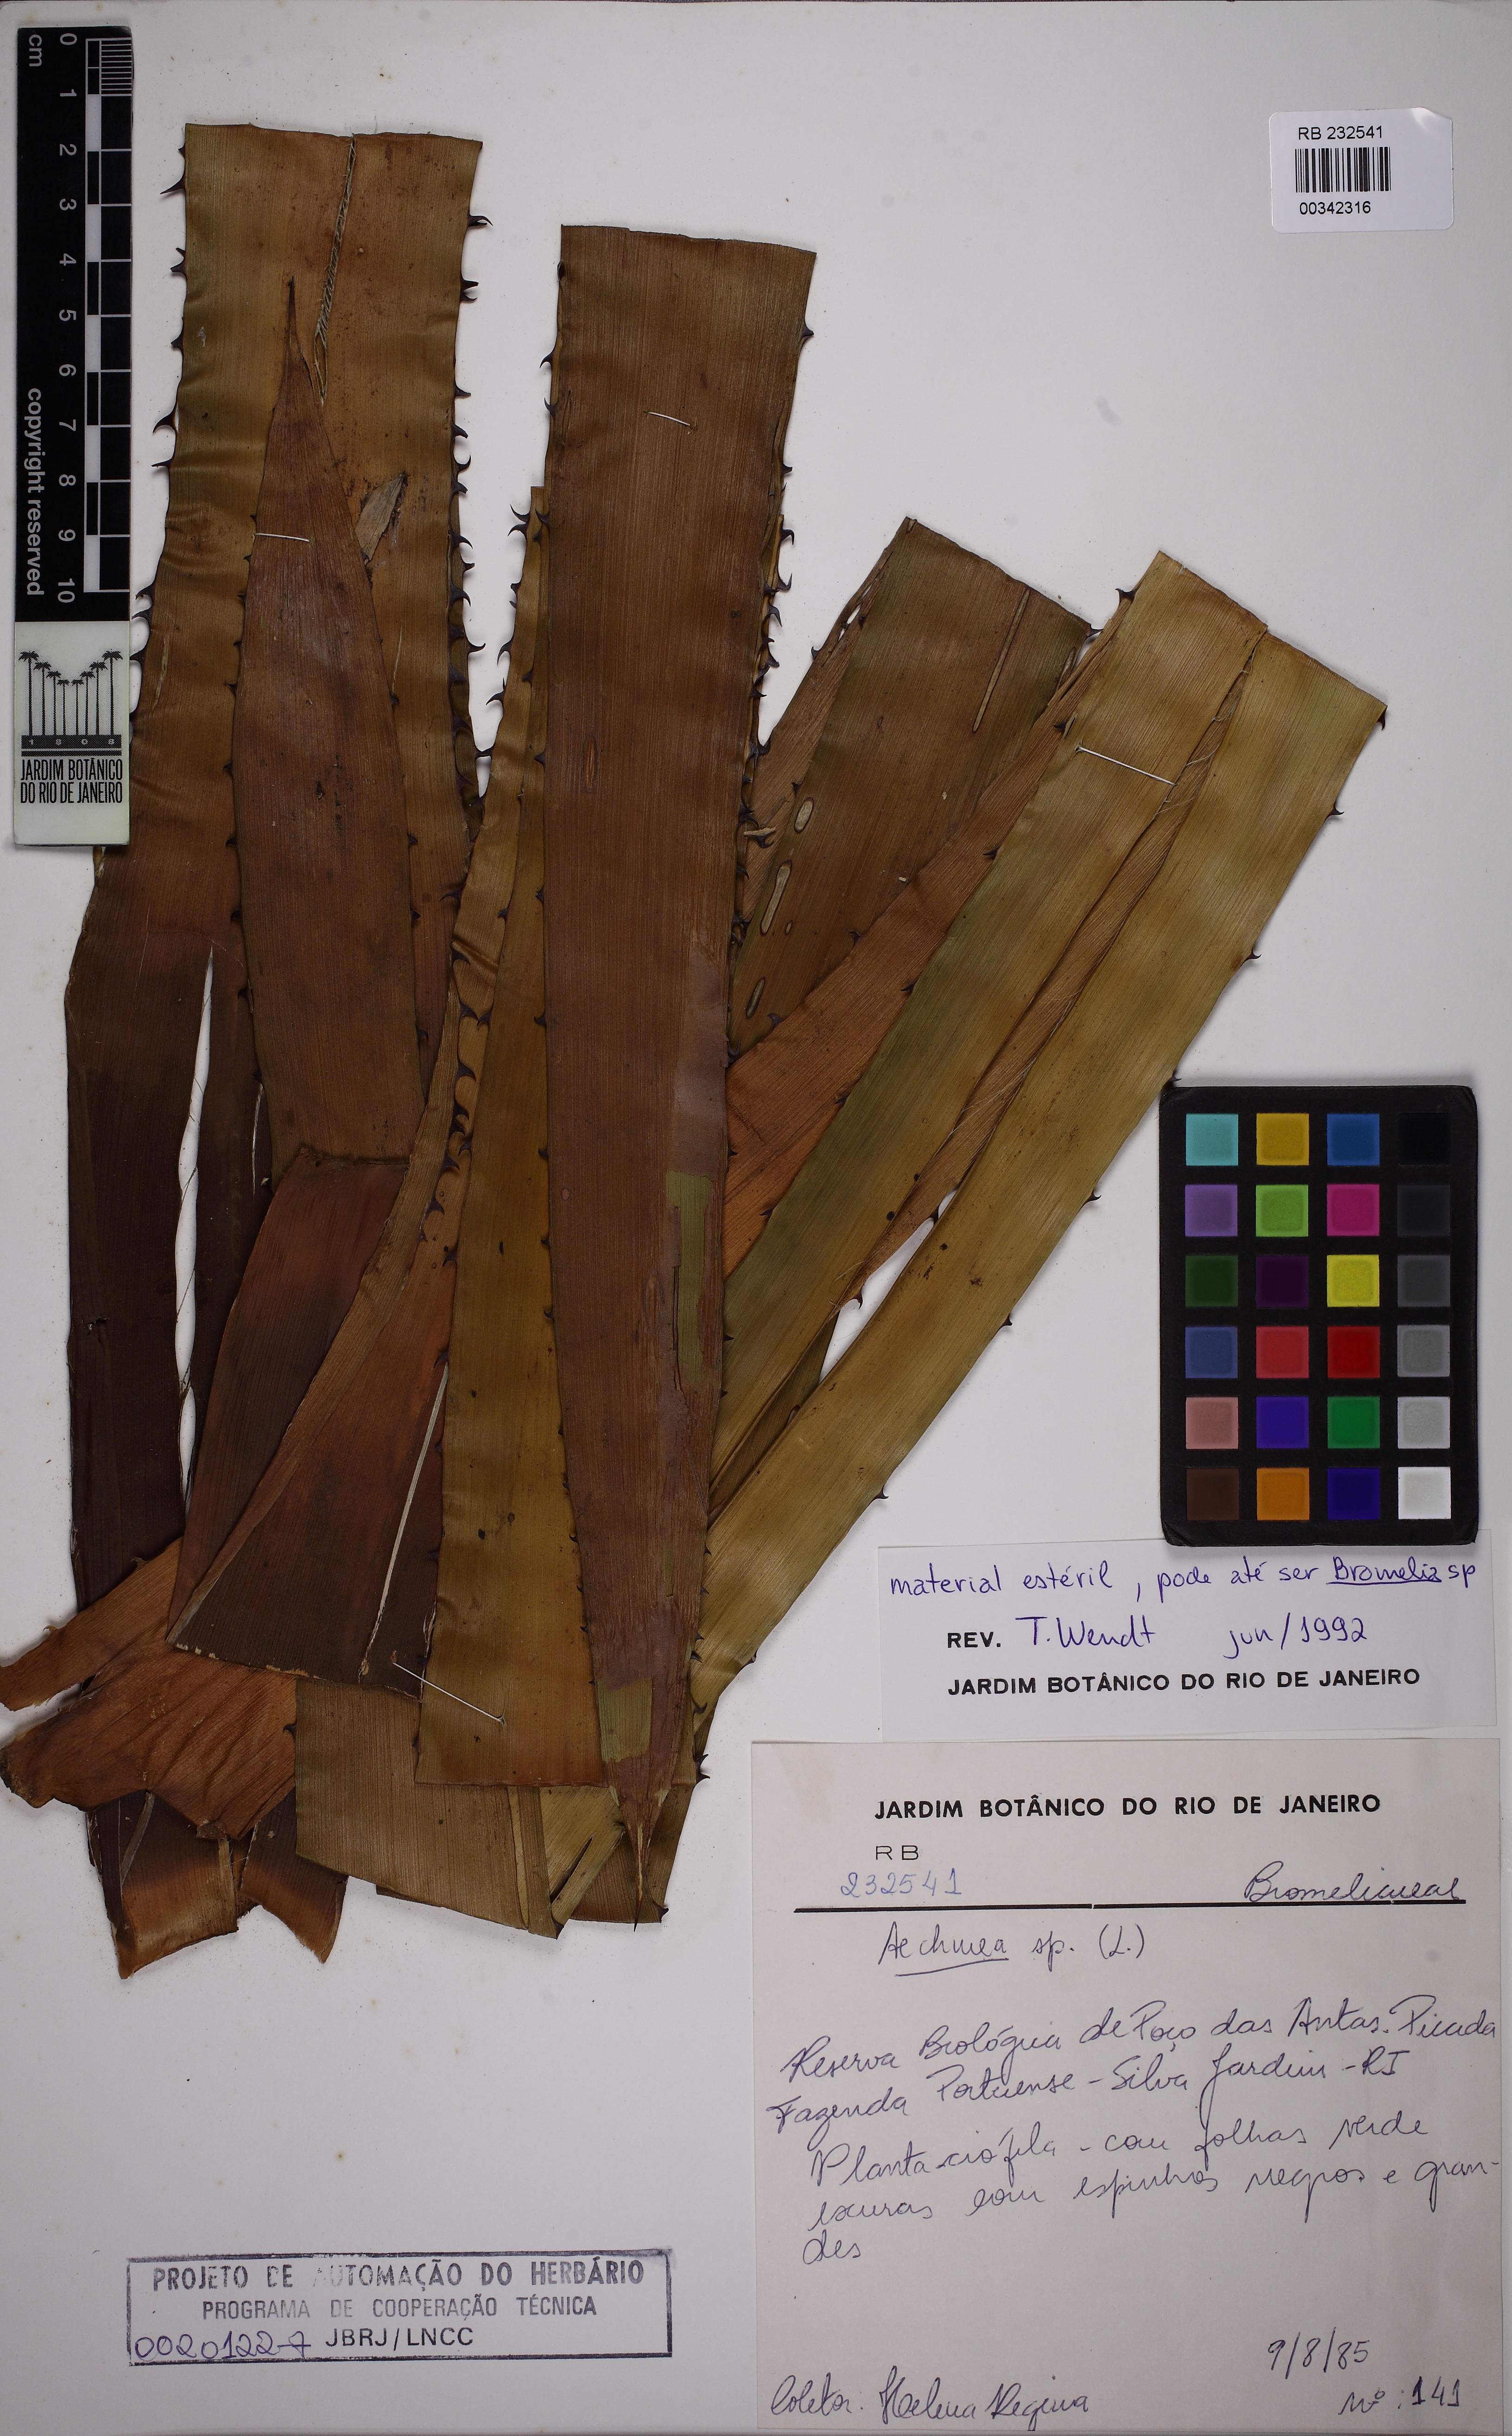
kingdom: Plantae
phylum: Tracheophyta
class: Liliopsida
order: Poales
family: Bromeliaceae
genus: Aechmea
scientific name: Aechmea
